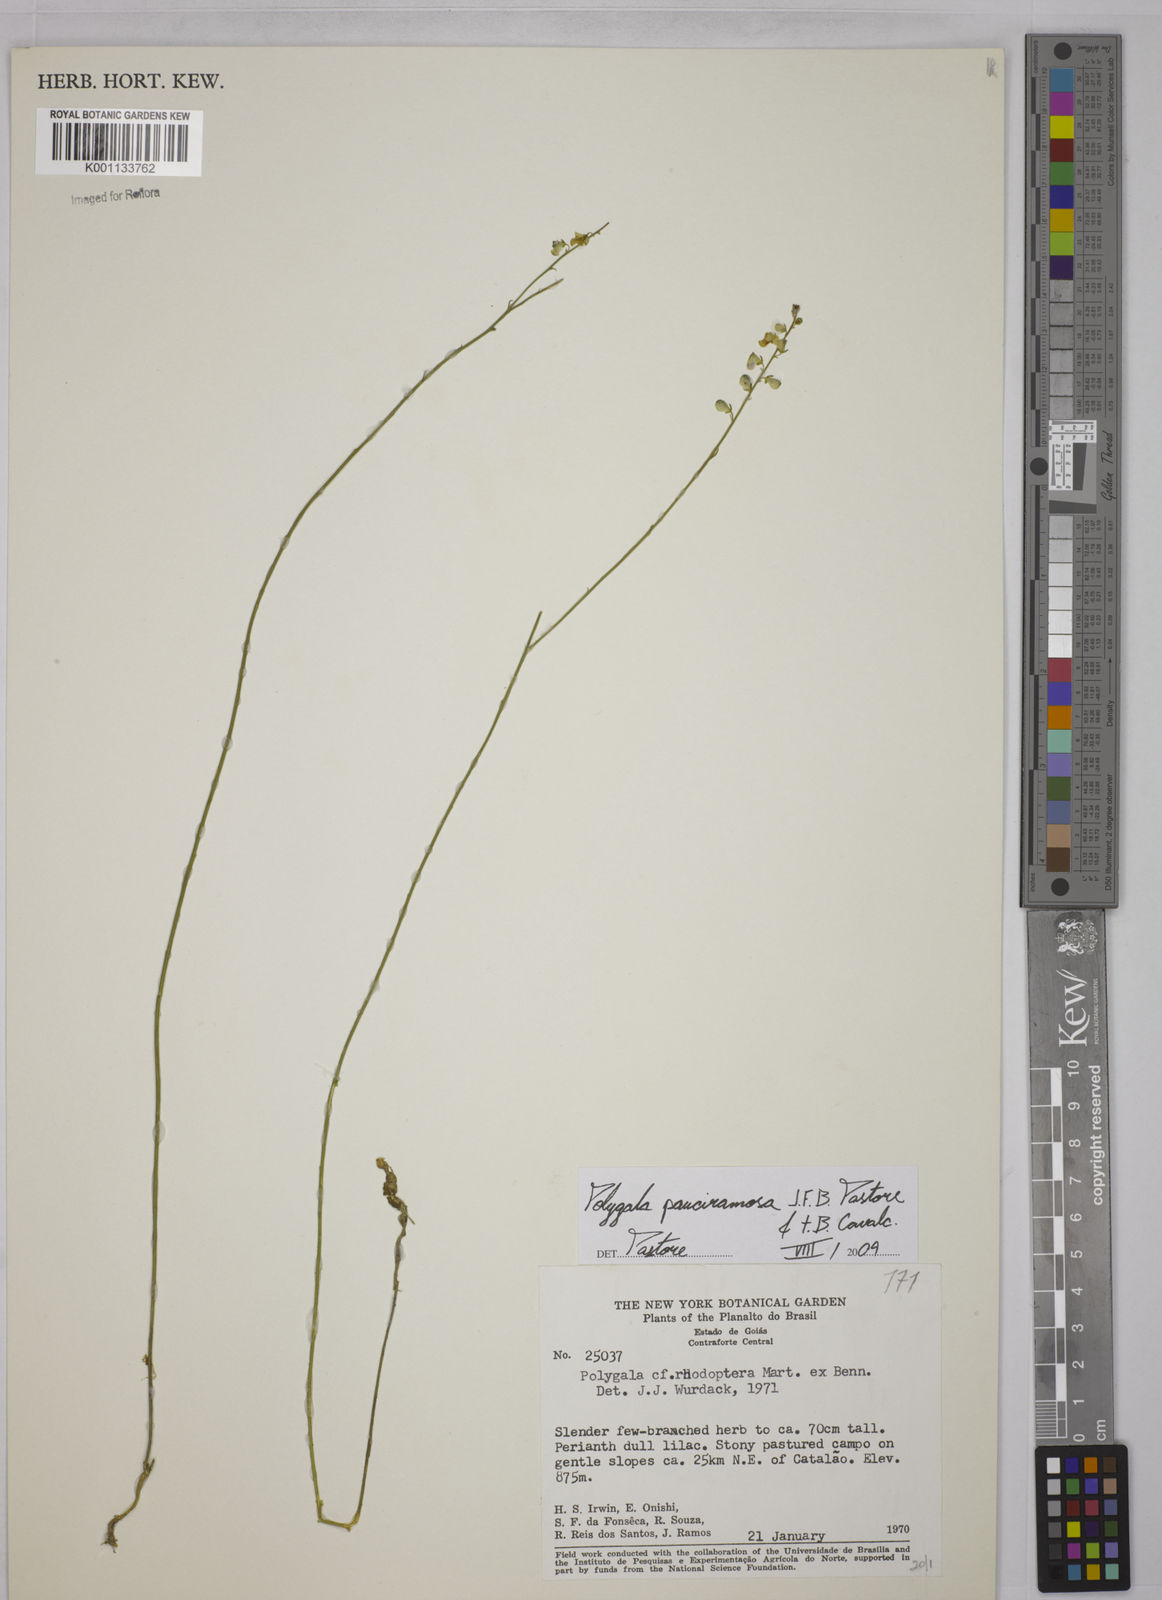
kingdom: Plantae
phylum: Tracheophyta
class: Magnoliopsida
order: Fabales
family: Polygalaceae
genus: Asemeia
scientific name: Asemeia lindmaniana
